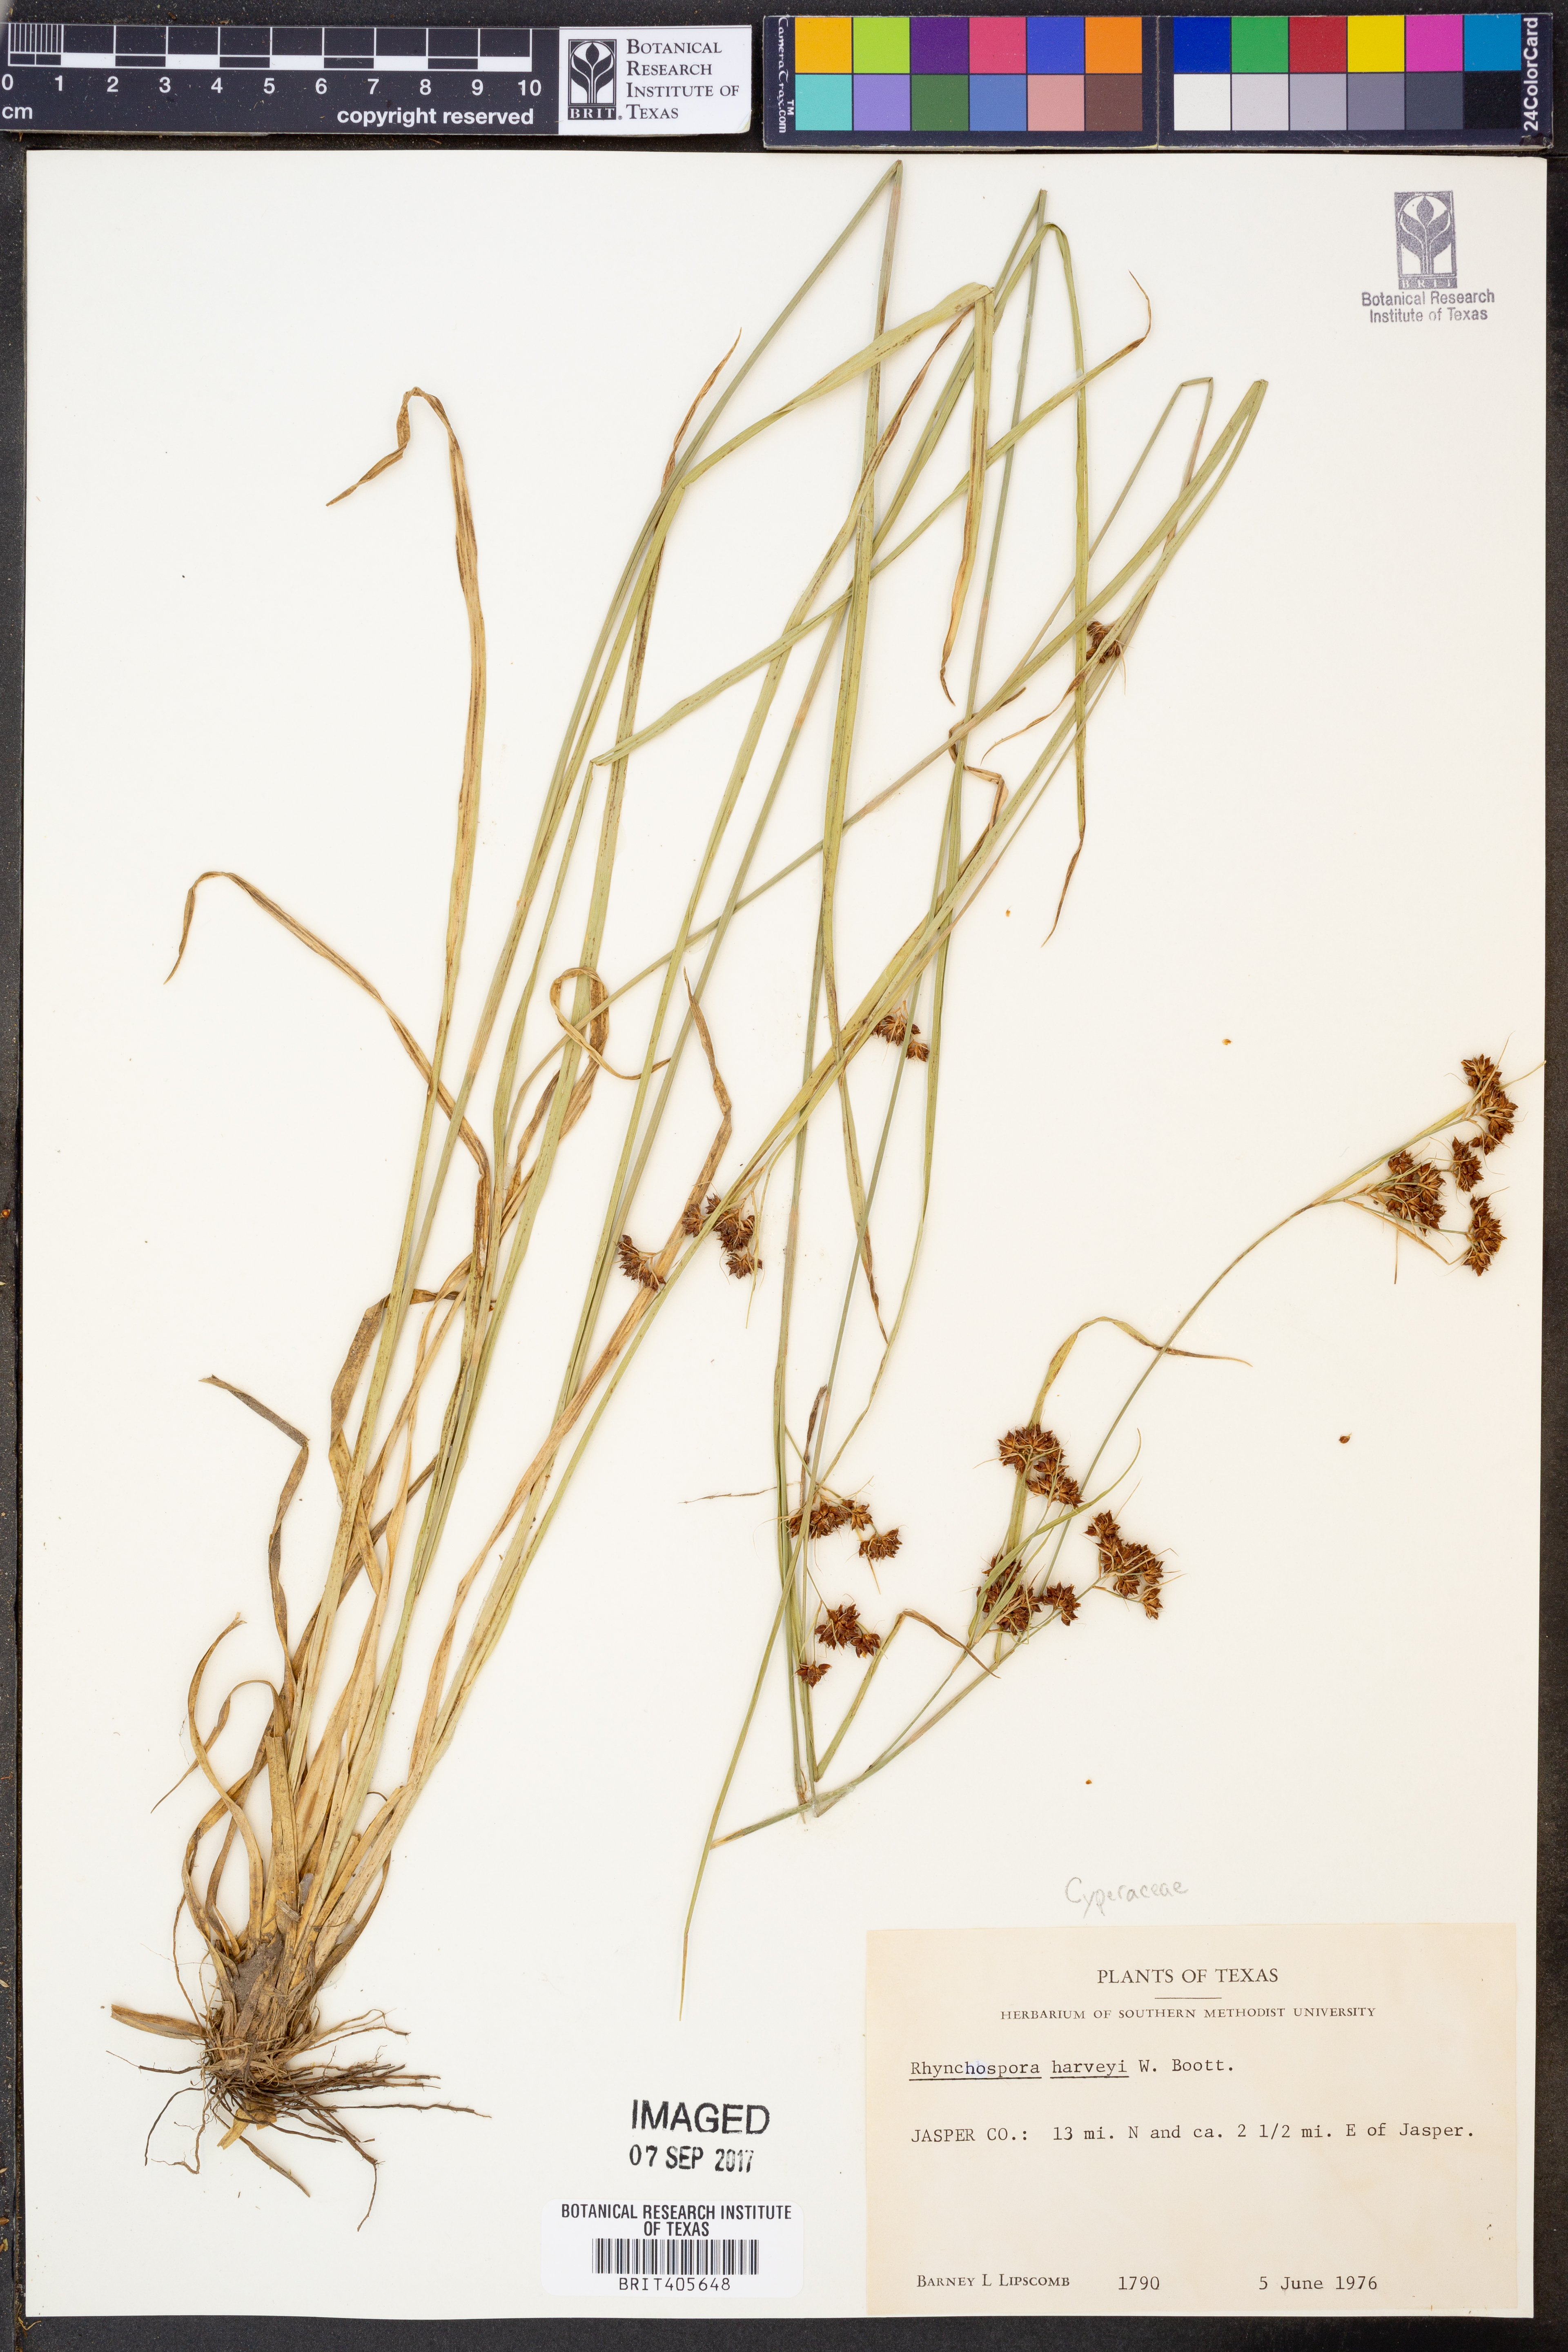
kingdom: Plantae
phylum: Tracheophyta
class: Liliopsida
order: Poales
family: Cyperaceae
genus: Rhynchospora
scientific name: Rhynchospora harveyi
